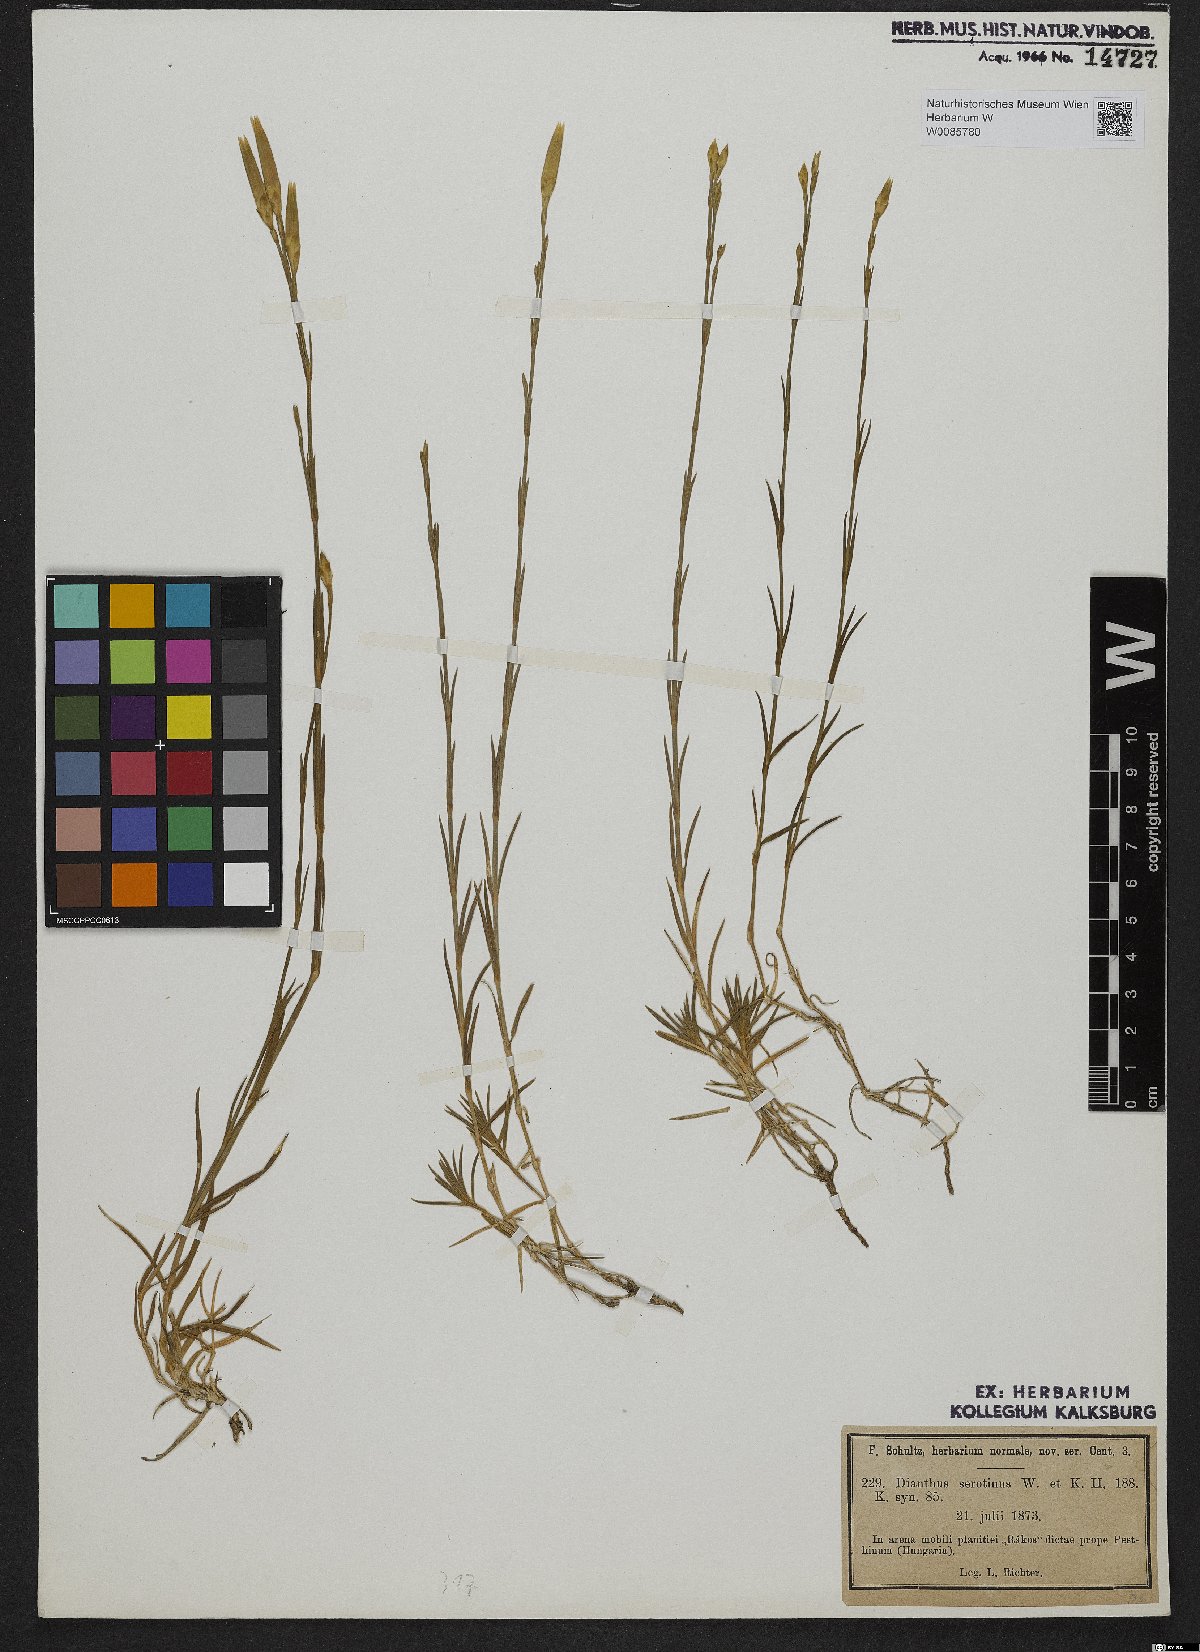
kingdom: Plantae
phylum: Tracheophyta
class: Magnoliopsida
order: Caryophyllales
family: Caryophyllaceae
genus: Dianthus
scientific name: Dianthus serotinus
